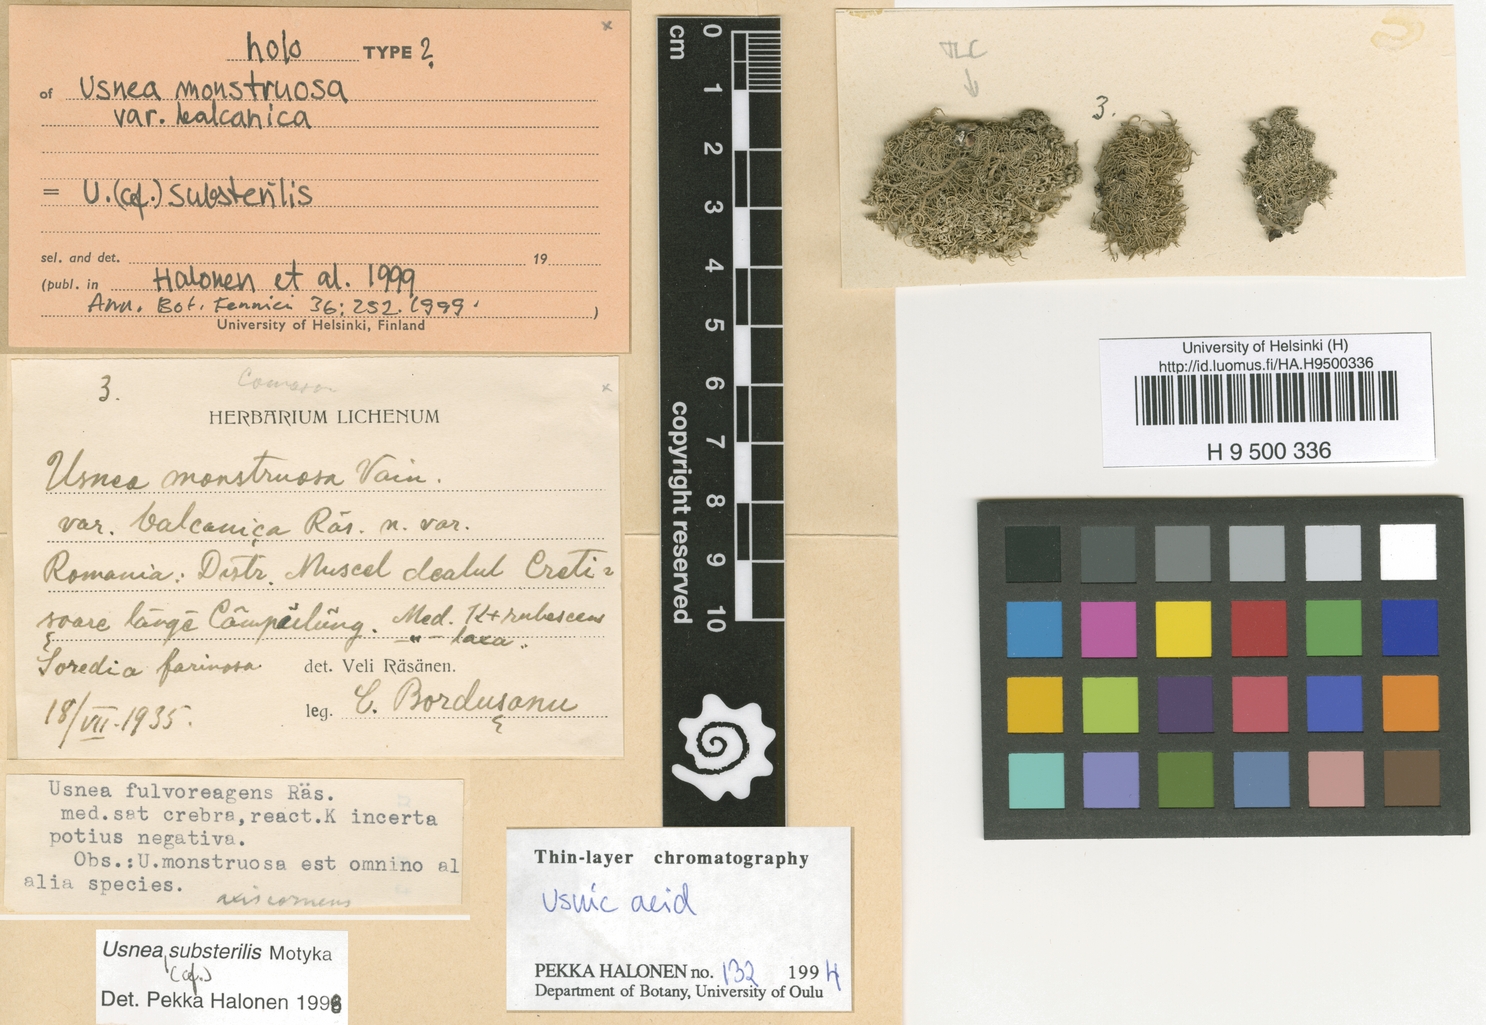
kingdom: Fungi
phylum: Ascomycota
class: Lecanoromycetes
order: Lecanorales
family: Parmeliaceae
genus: Usnea
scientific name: Usnea perplexans
